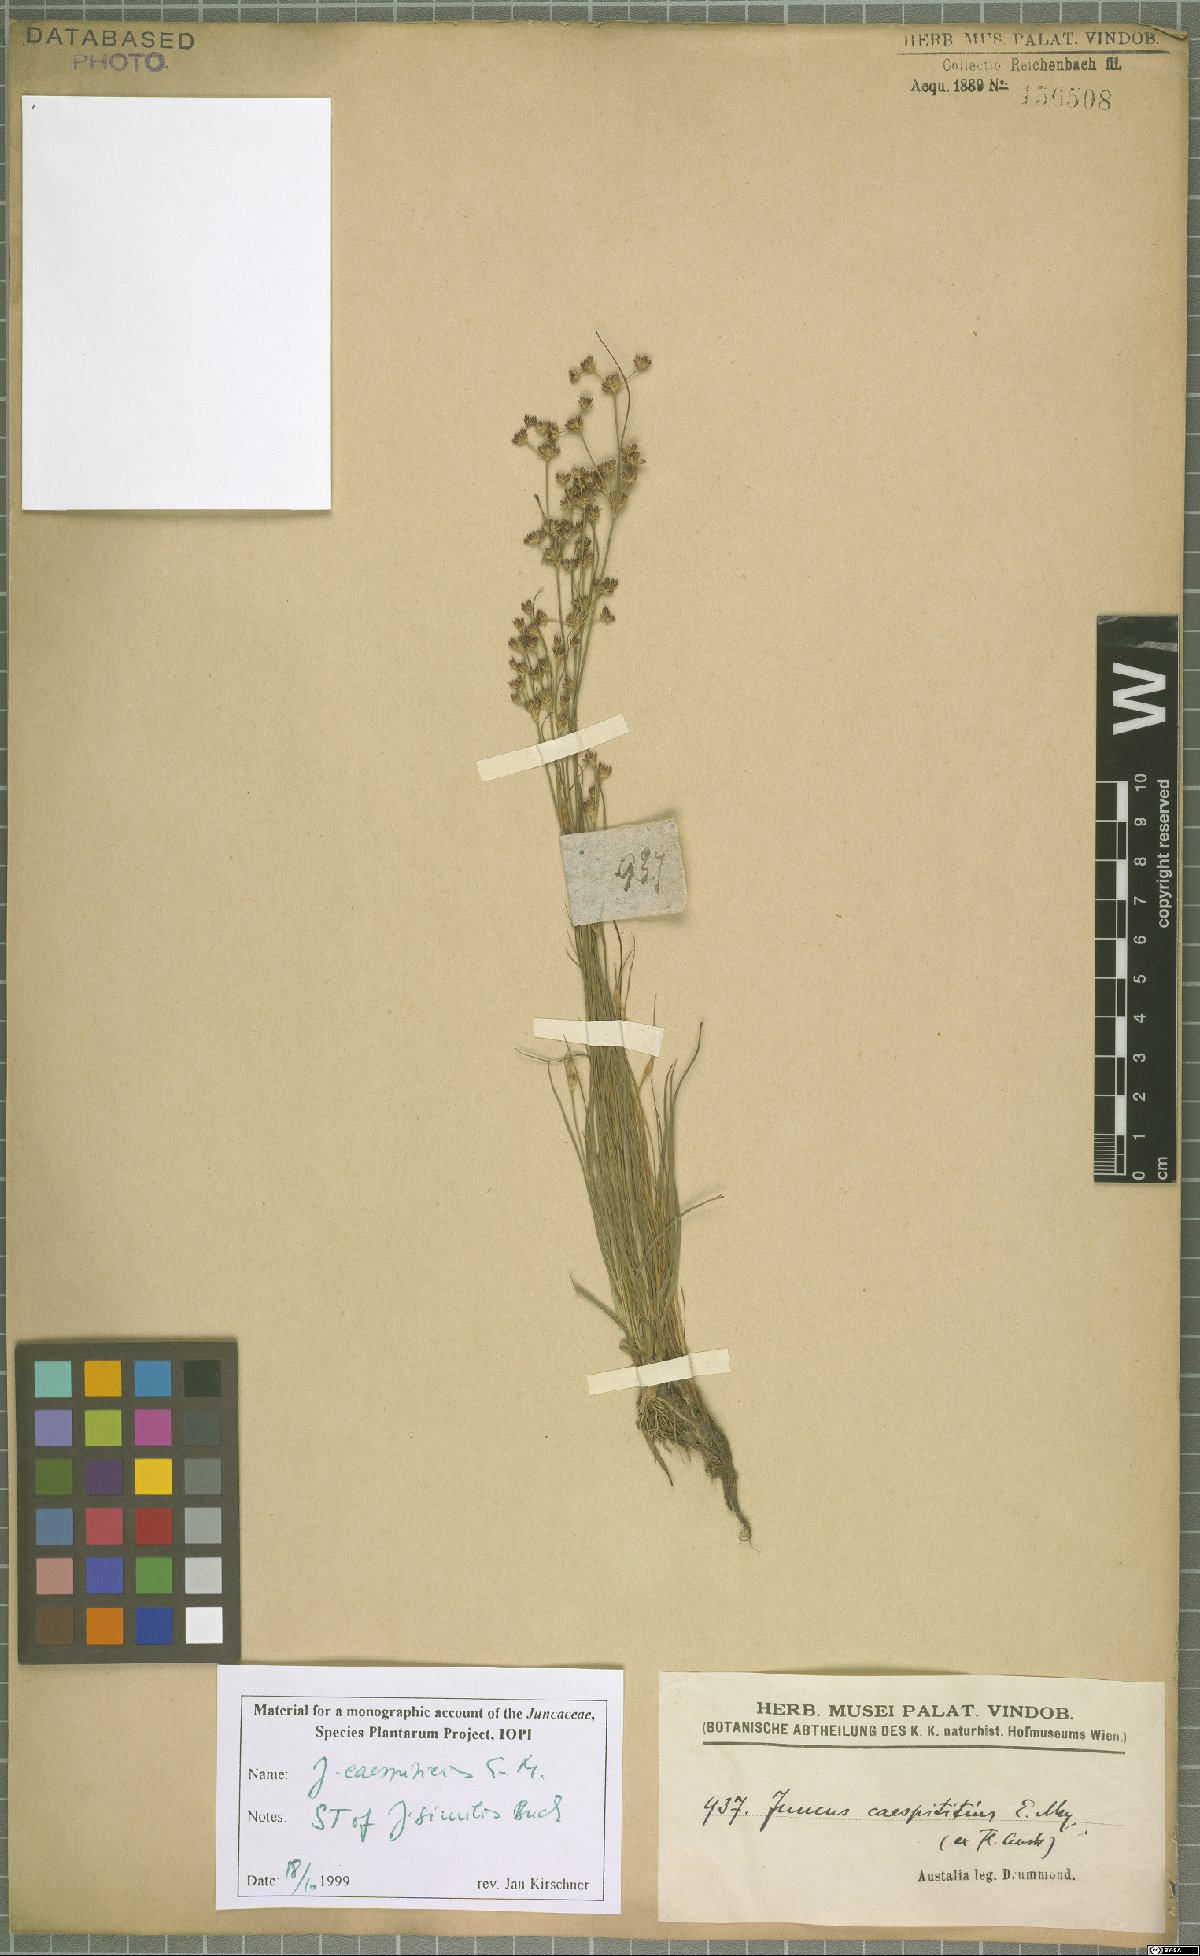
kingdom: Plantae
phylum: Tracheophyta
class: Liliopsida
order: Poales
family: Juncaceae
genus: Juncus
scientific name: Juncus caespiticius
